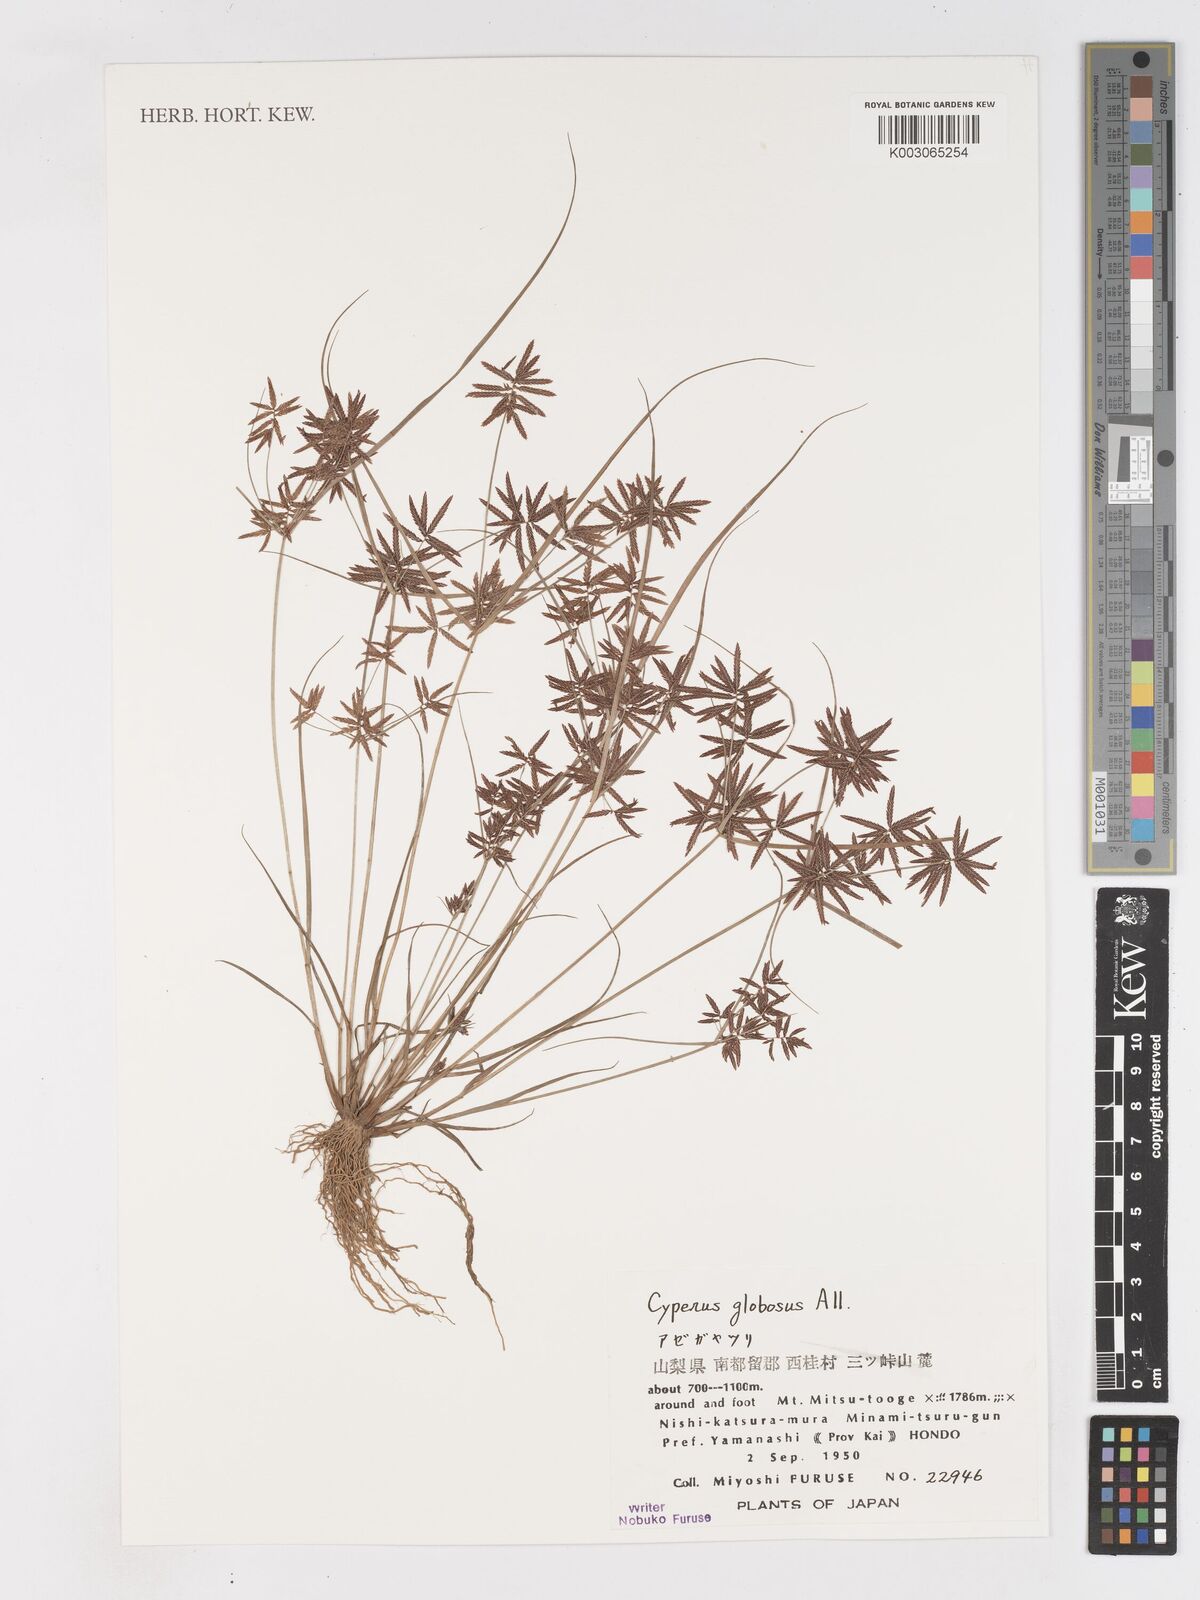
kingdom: Plantae
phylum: Tracheophyta
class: Liliopsida
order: Poales
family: Cyperaceae
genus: Cyperus
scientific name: Cyperus flavidus
